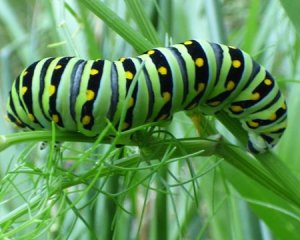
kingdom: Animalia
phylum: Arthropoda
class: Insecta
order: Lepidoptera
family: Papilionidae
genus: Papilio
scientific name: Papilio polyxenes
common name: Black Swallowtail
